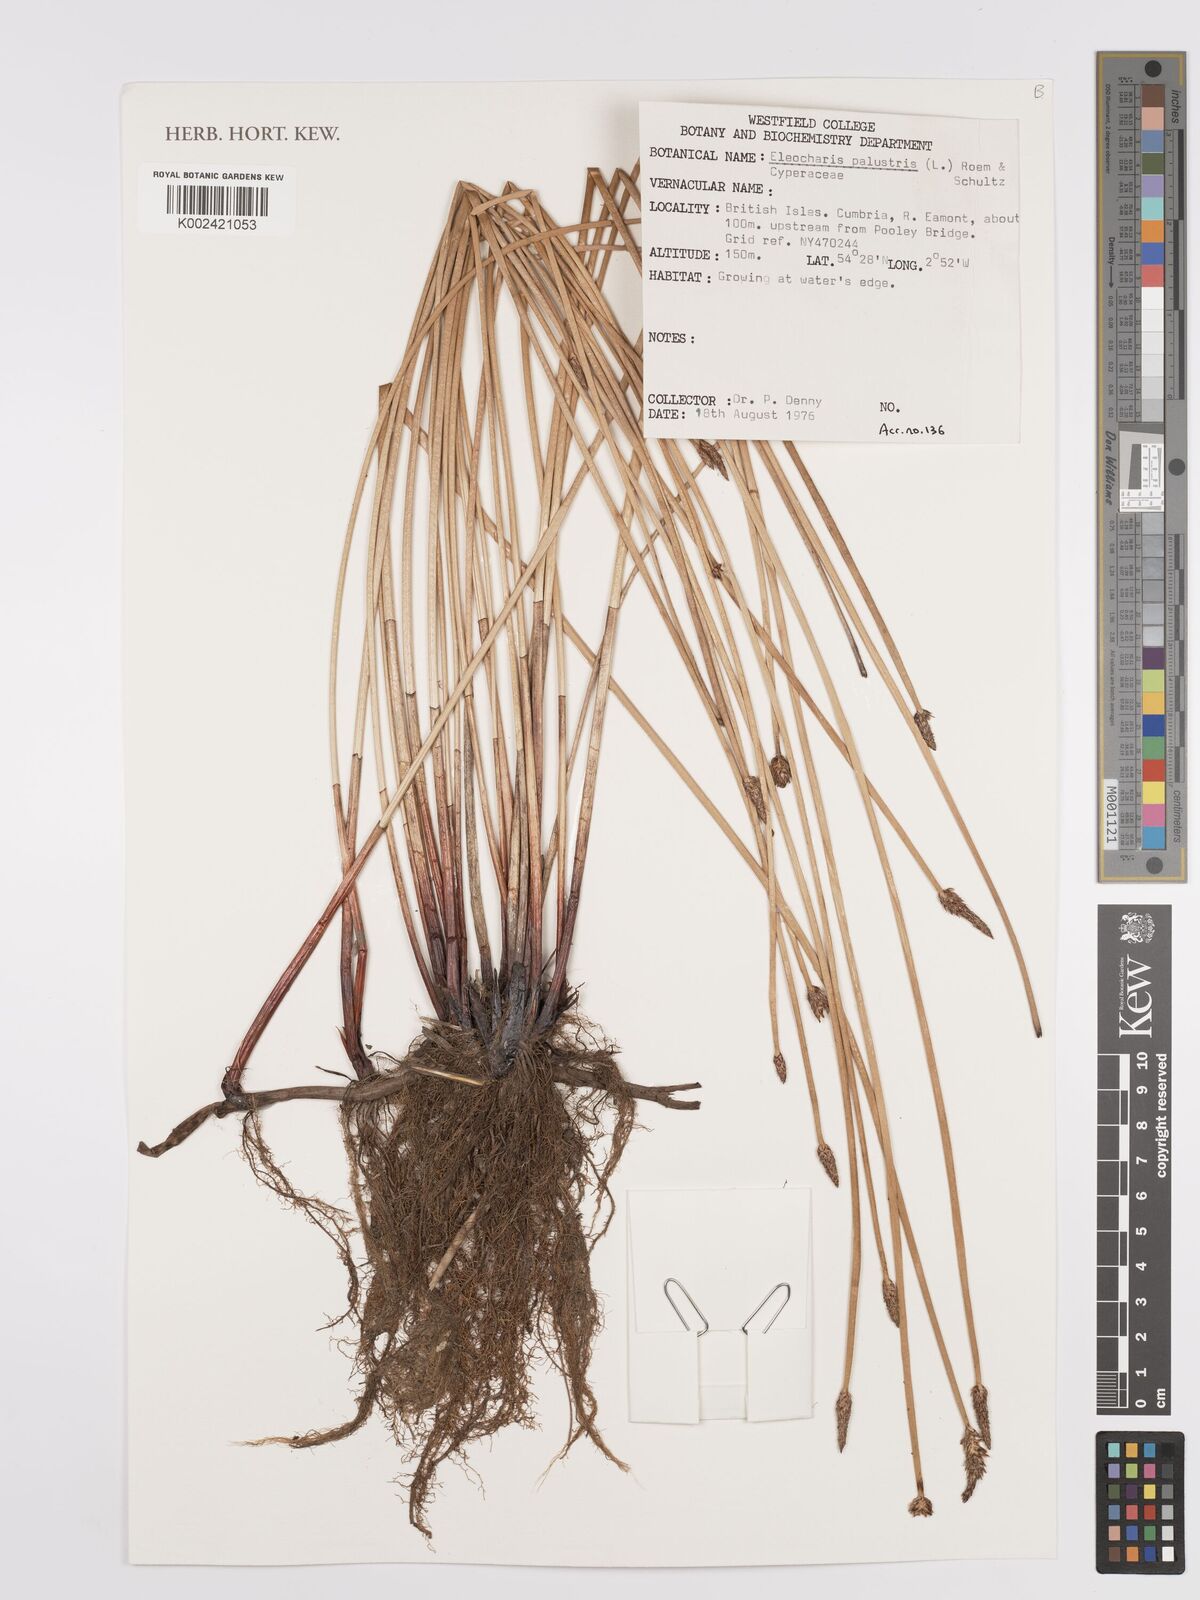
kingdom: Plantae
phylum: Tracheophyta
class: Liliopsida
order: Poales
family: Cyperaceae
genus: Eleocharis
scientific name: Eleocharis palustris
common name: Common spike-rush
